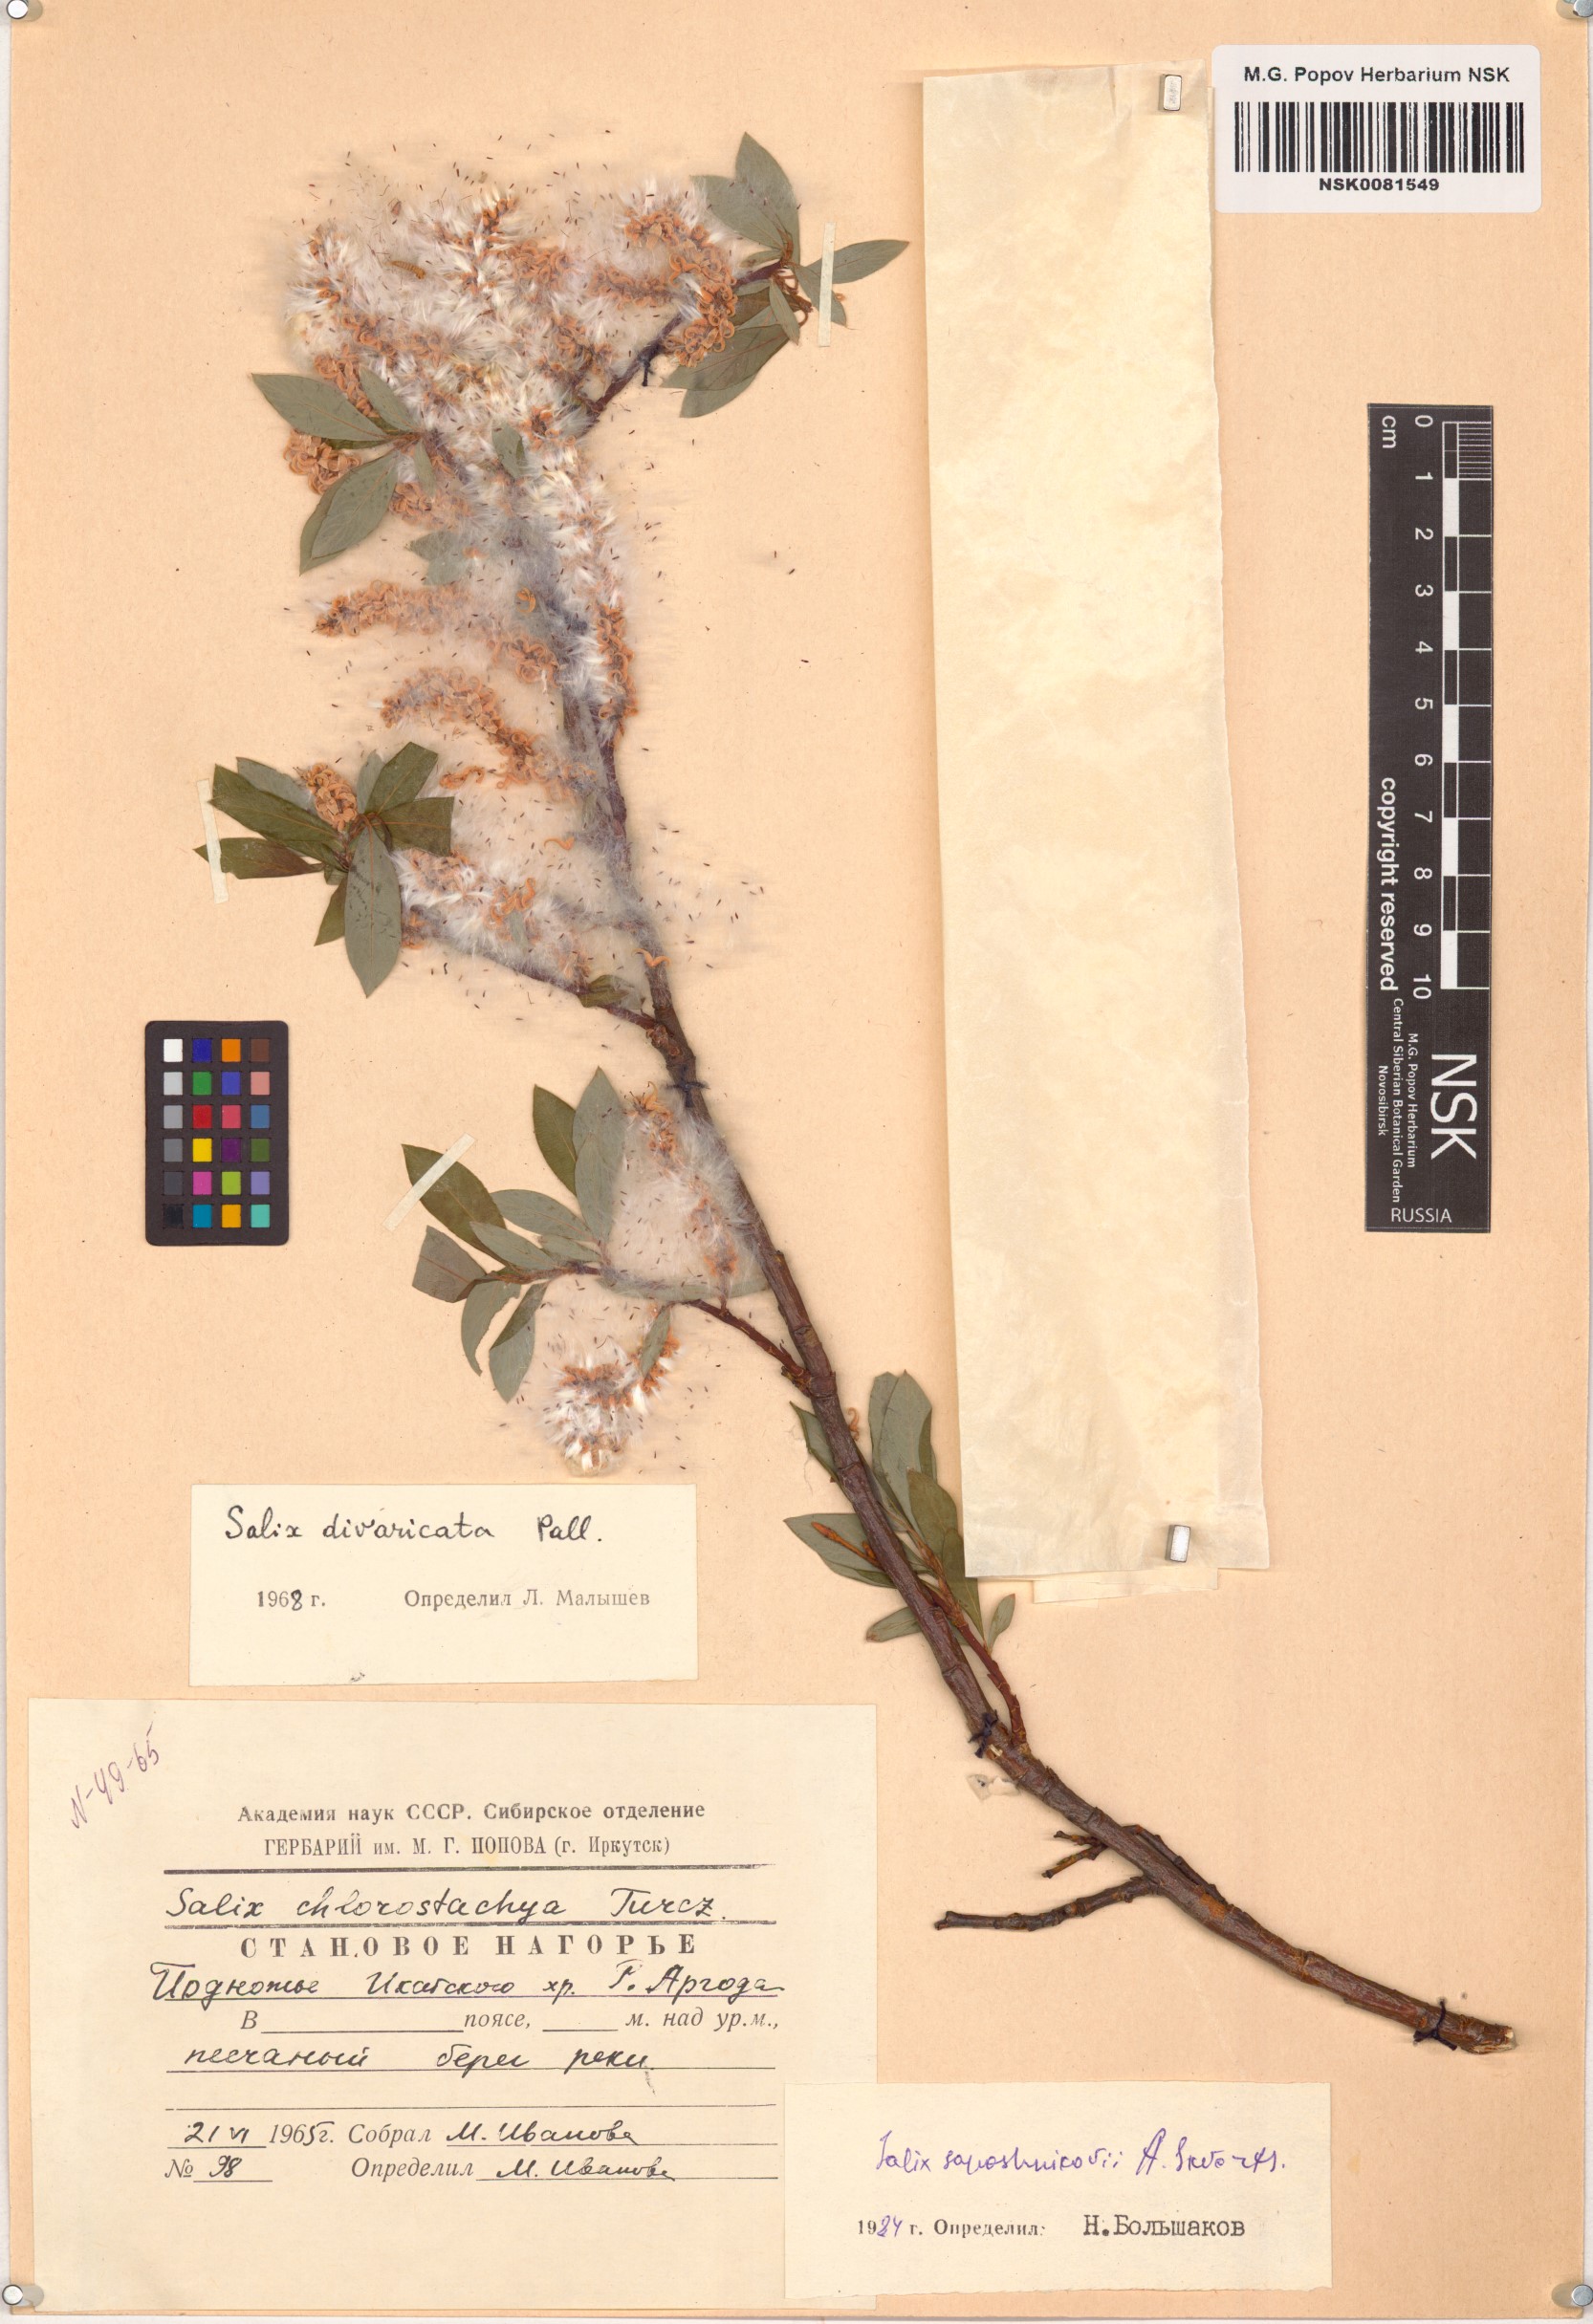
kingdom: Plantae
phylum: Tracheophyta
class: Magnoliopsida
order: Malpighiales
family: Salicaceae
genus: Salix
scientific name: Salix saposhnikovii
